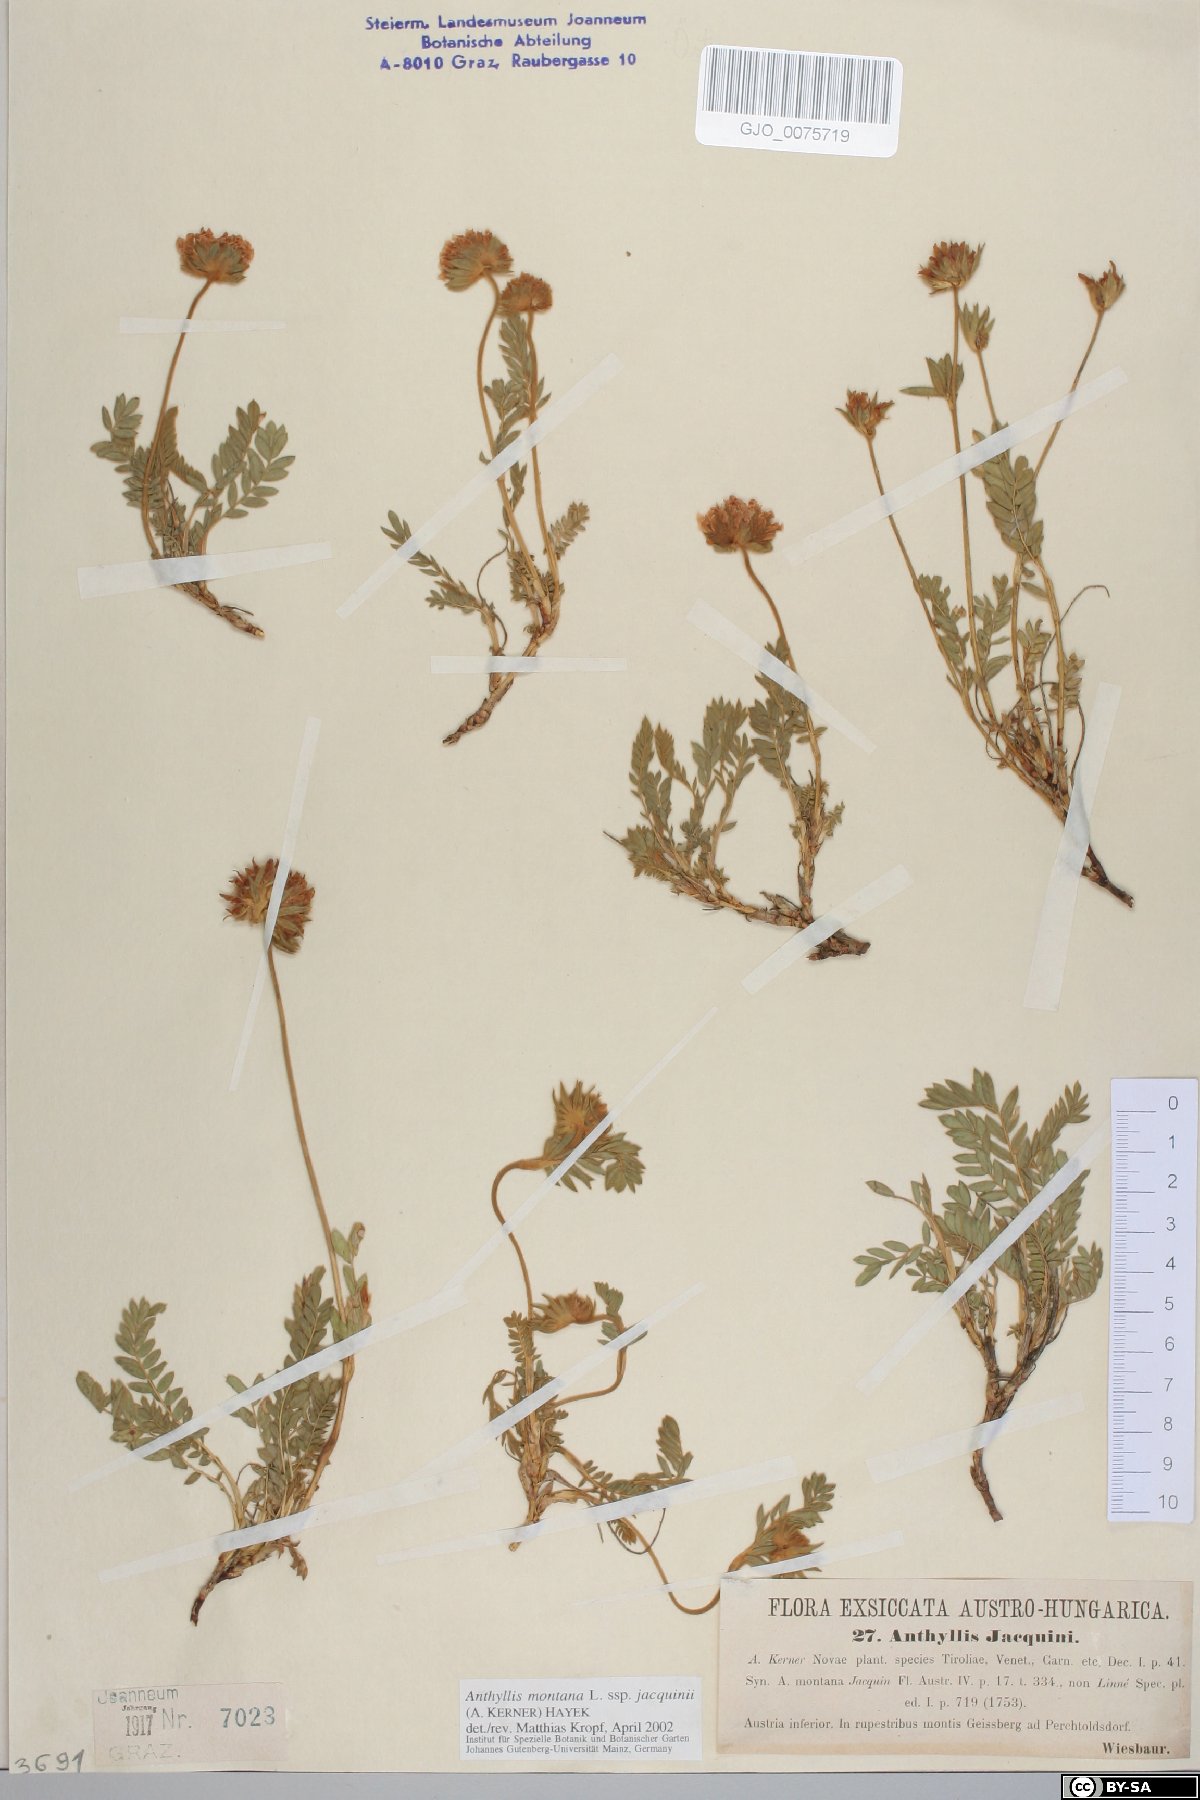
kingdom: Plantae
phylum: Tracheophyta
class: Magnoliopsida
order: Fabales
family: Fabaceae
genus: Anthyllis
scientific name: Anthyllis montana
